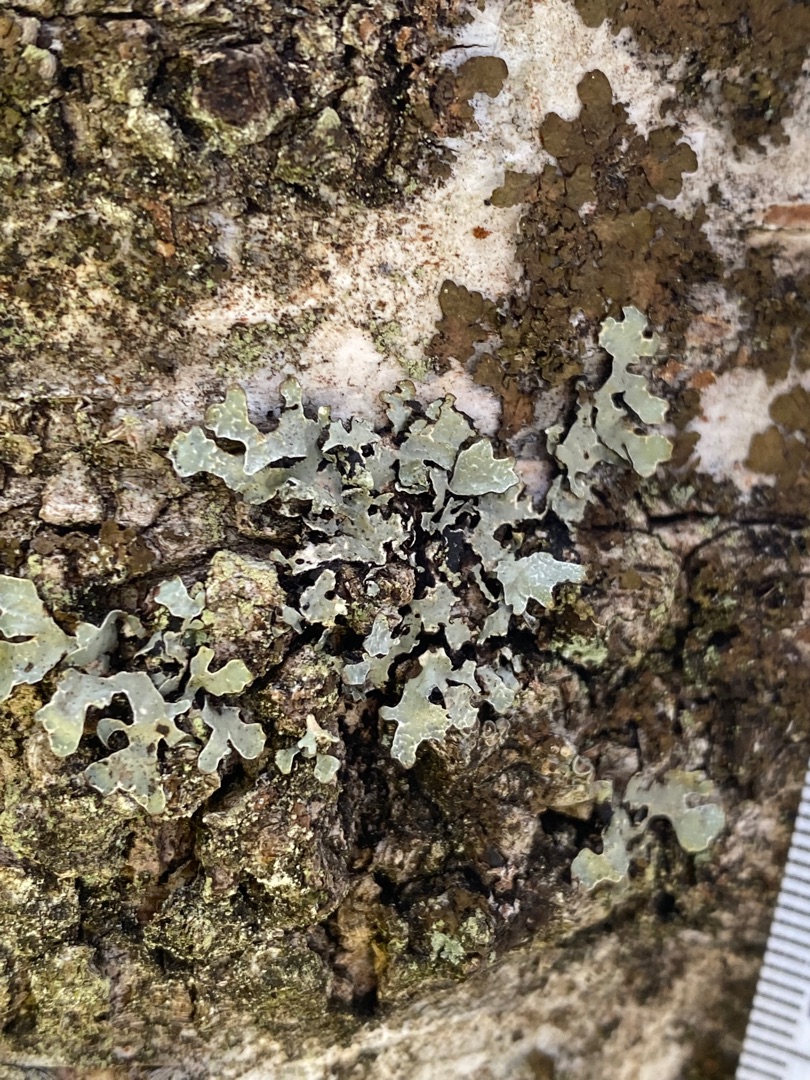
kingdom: Fungi
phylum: Ascomycota
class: Lecanoromycetes
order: Lecanorales
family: Parmeliaceae
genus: Parmelia
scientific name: Parmelia sulcata
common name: Rynket skållav
